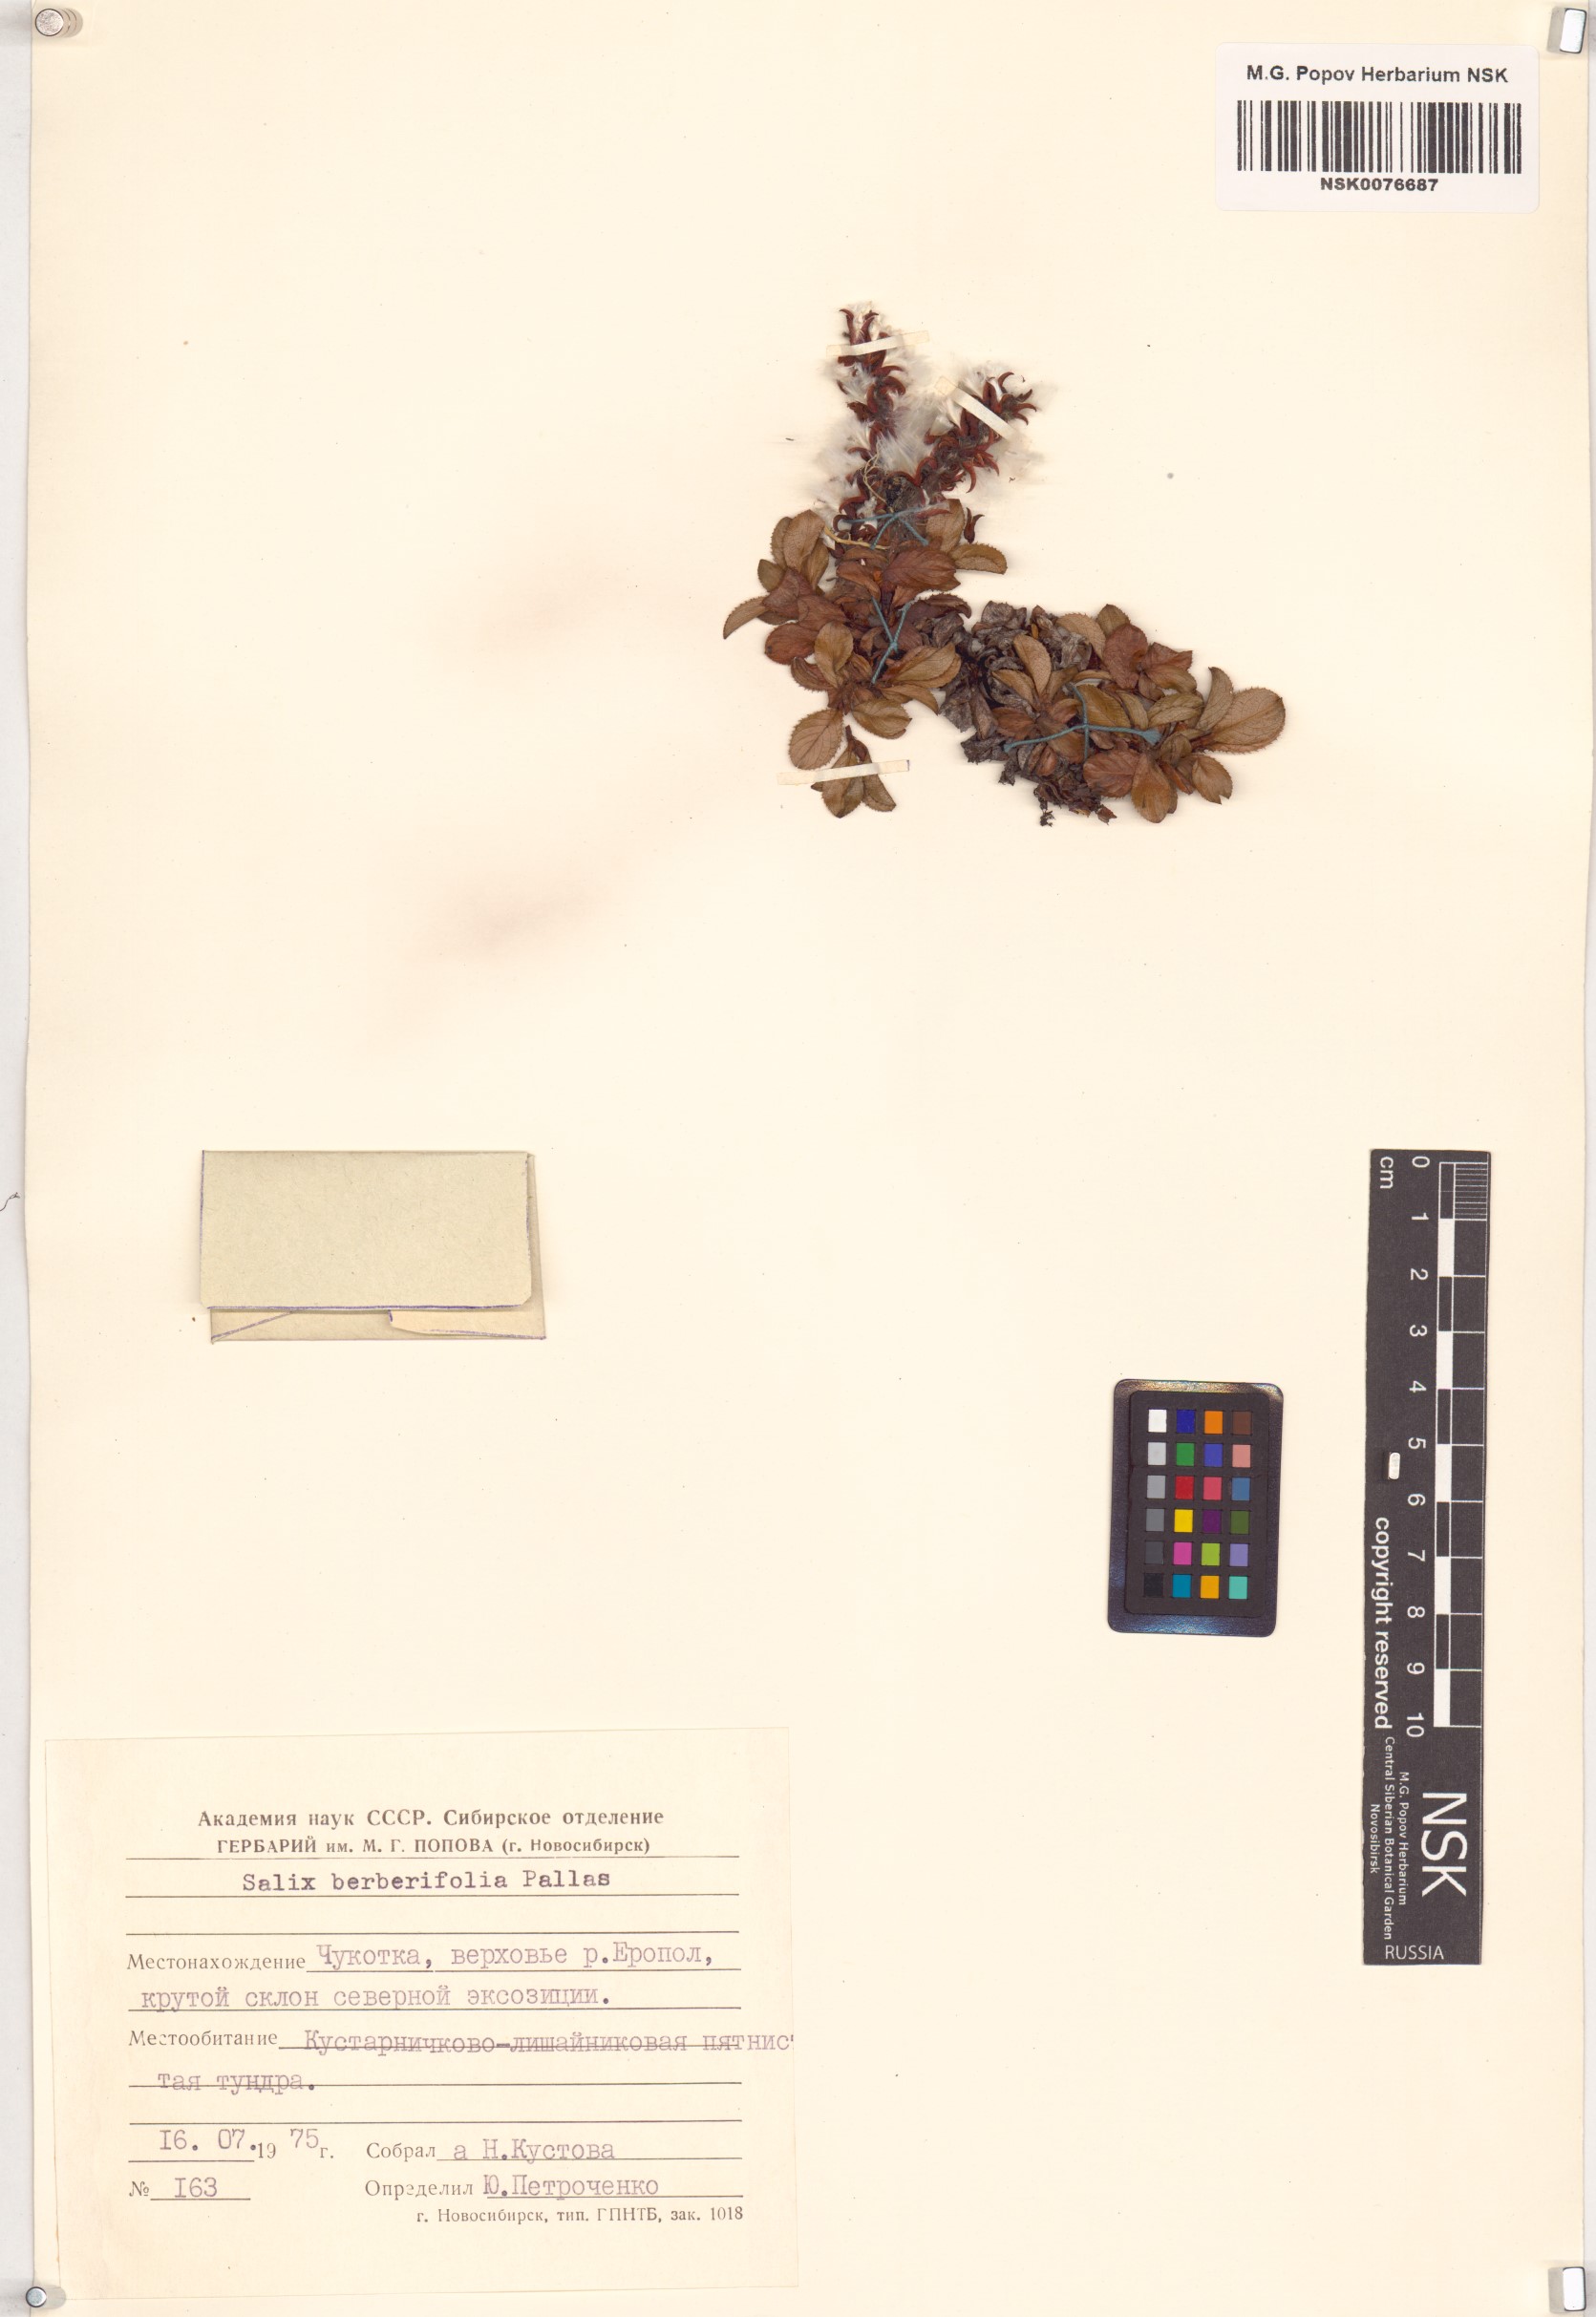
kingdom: Plantae
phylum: Tracheophyta
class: Magnoliopsida
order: Malpighiales
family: Salicaceae
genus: Salix
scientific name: Salix berberifolia
